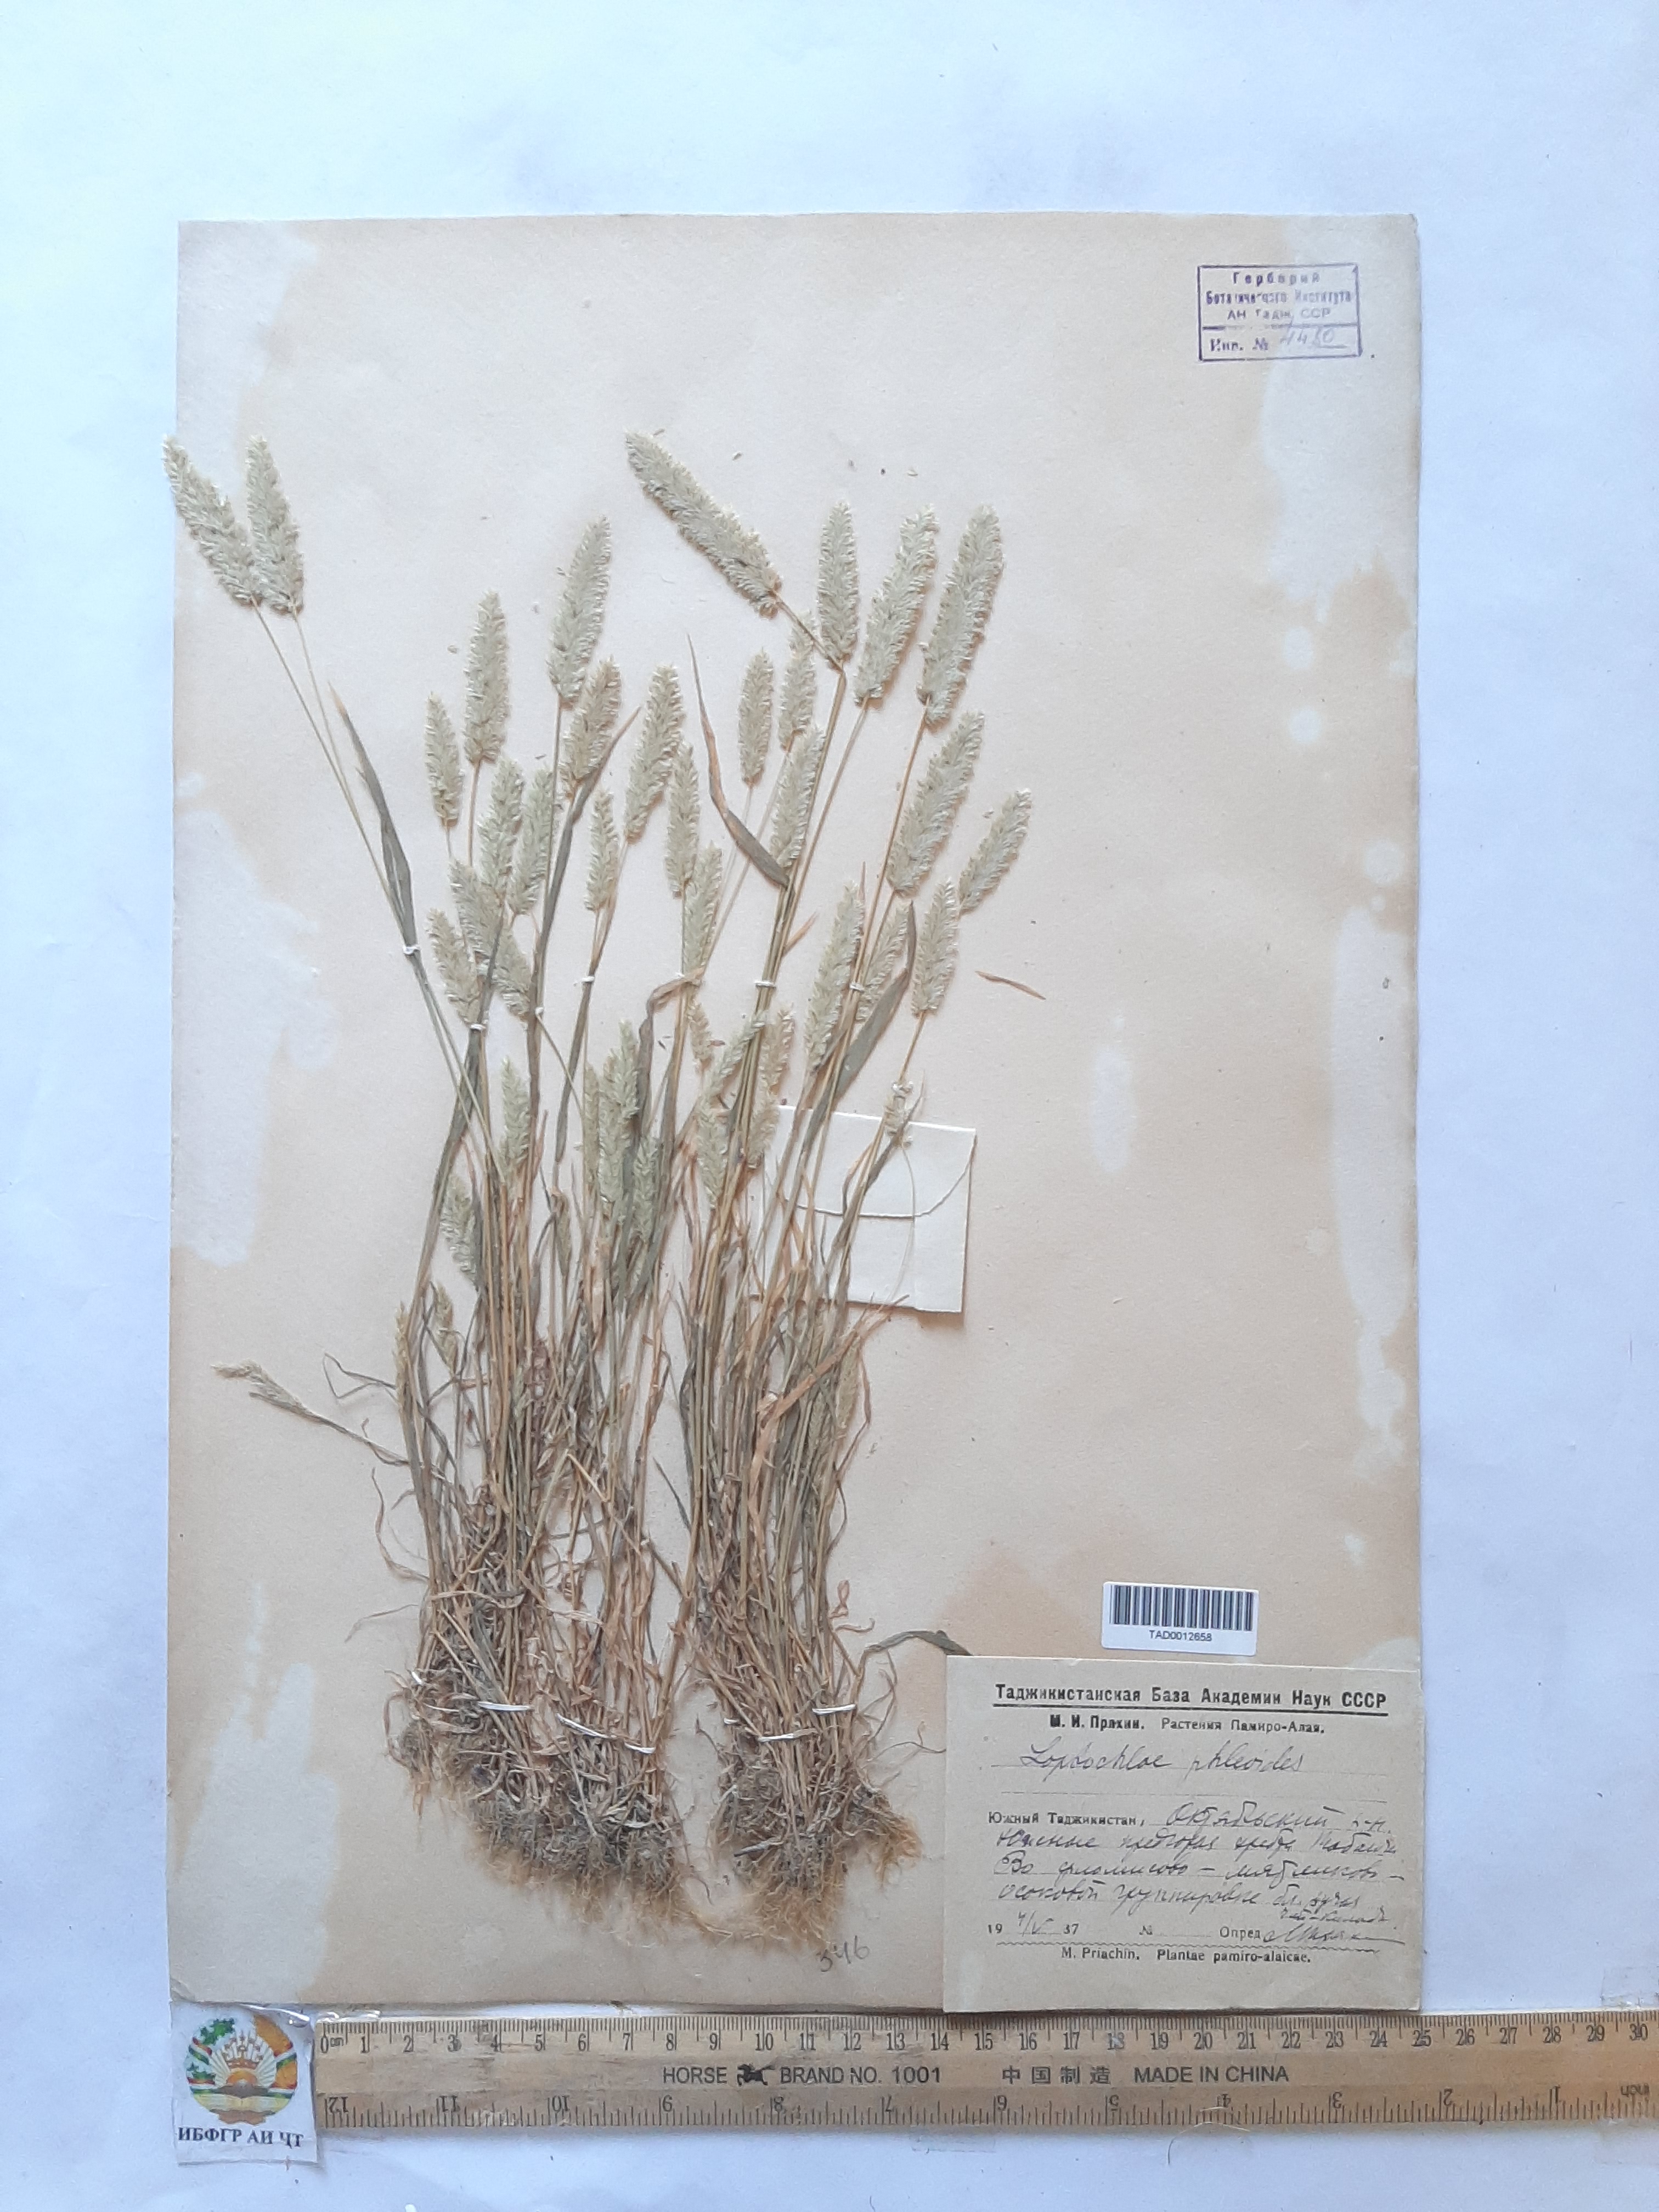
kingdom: Plantae
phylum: Tracheophyta
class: Liliopsida
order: Poales
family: Poaceae
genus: Rostraria
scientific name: Rostraria cristata
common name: Mediterranean hair-grass
